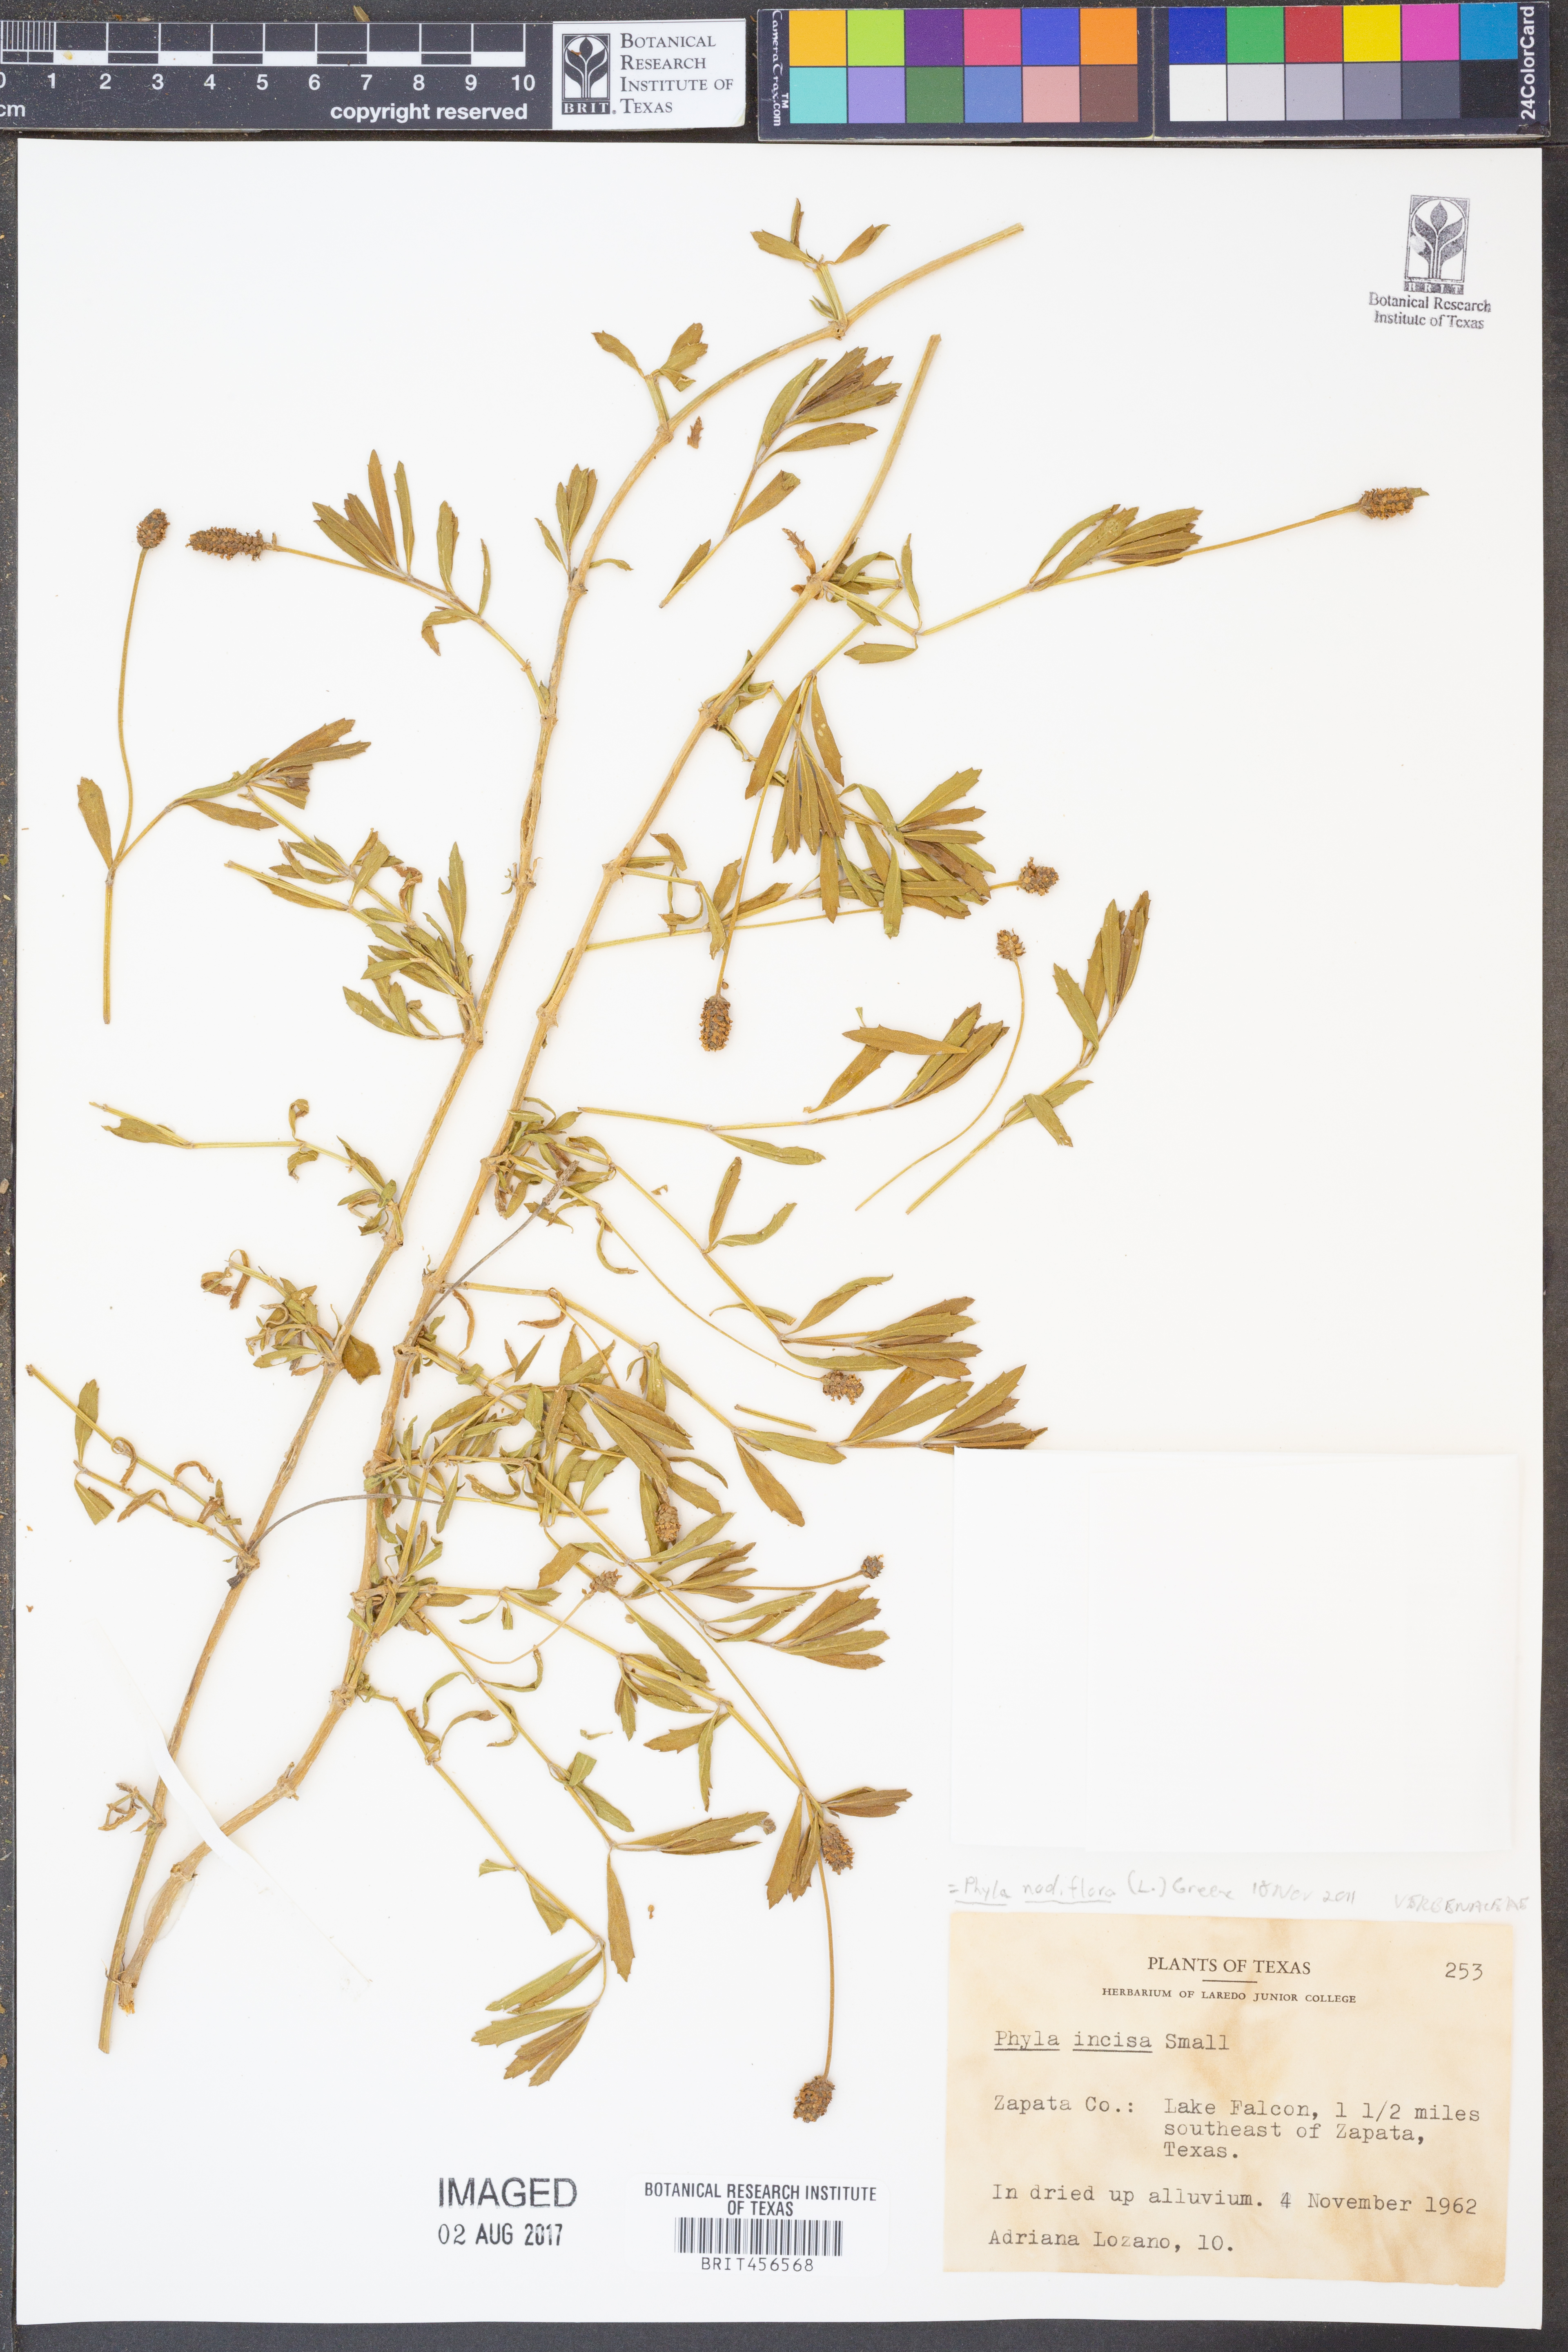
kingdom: Plantae
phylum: Tracheophyta
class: Magnoliopsida
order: Lamiales
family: Verbenaceae
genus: Phyla
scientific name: Phyla nodiflora
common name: Frogfruit
